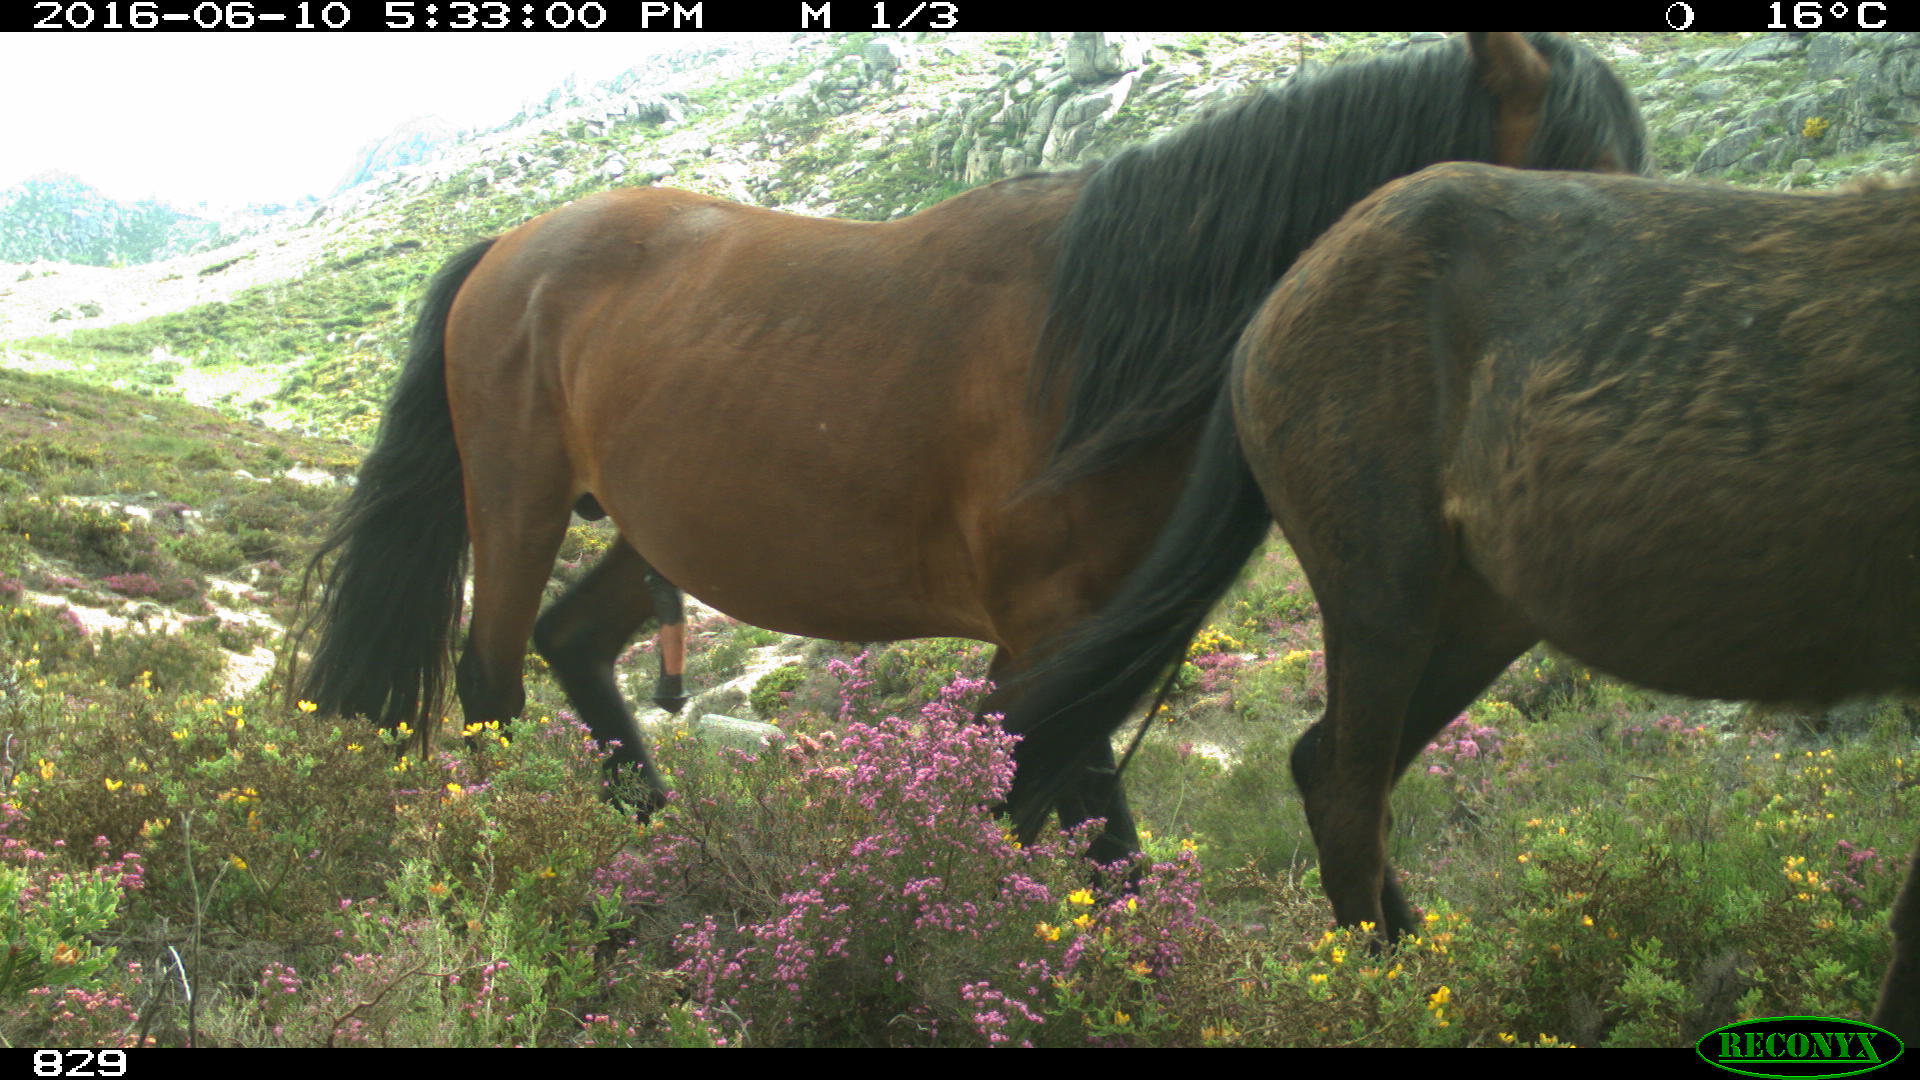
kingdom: Animalia
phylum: Chordata
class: Mammalia
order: Perissodactyla
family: Equidae
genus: Equus
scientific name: Equus caballus
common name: Horse
